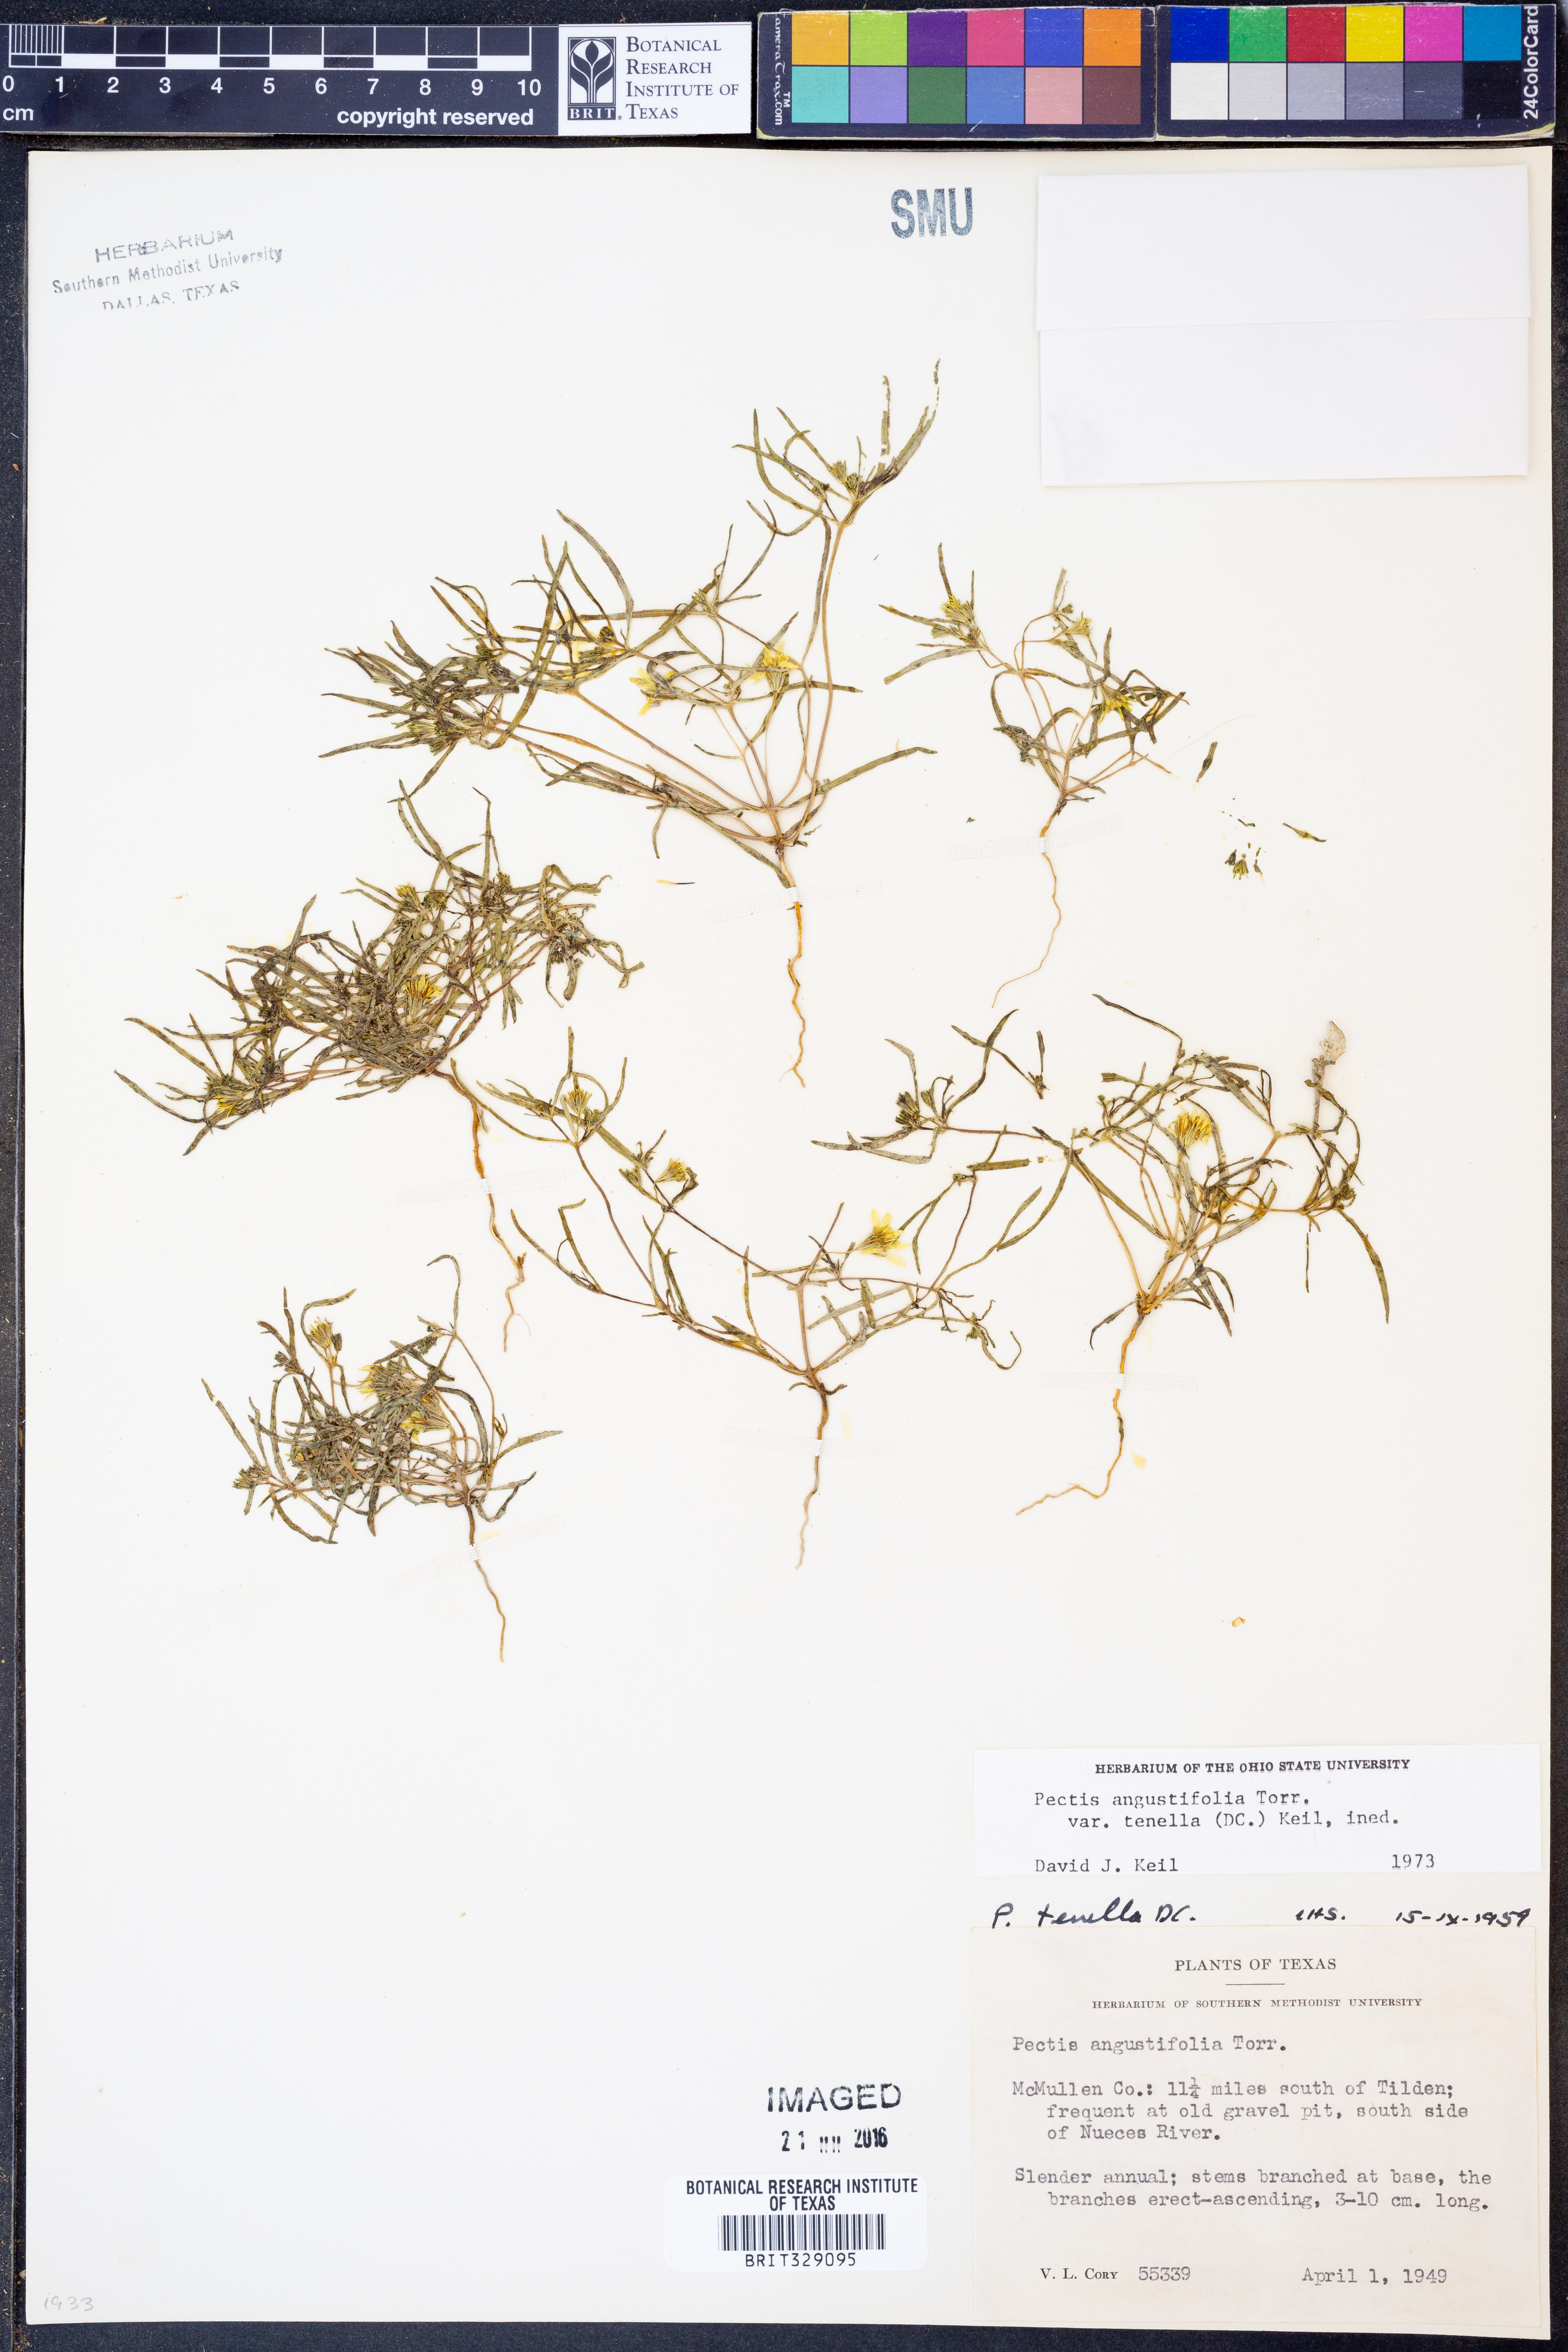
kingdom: Plantae
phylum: Tracheophyta
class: Magnoliopsida
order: Asterales
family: Asteraceae
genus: Pectis
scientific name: Pectis angustifolia
